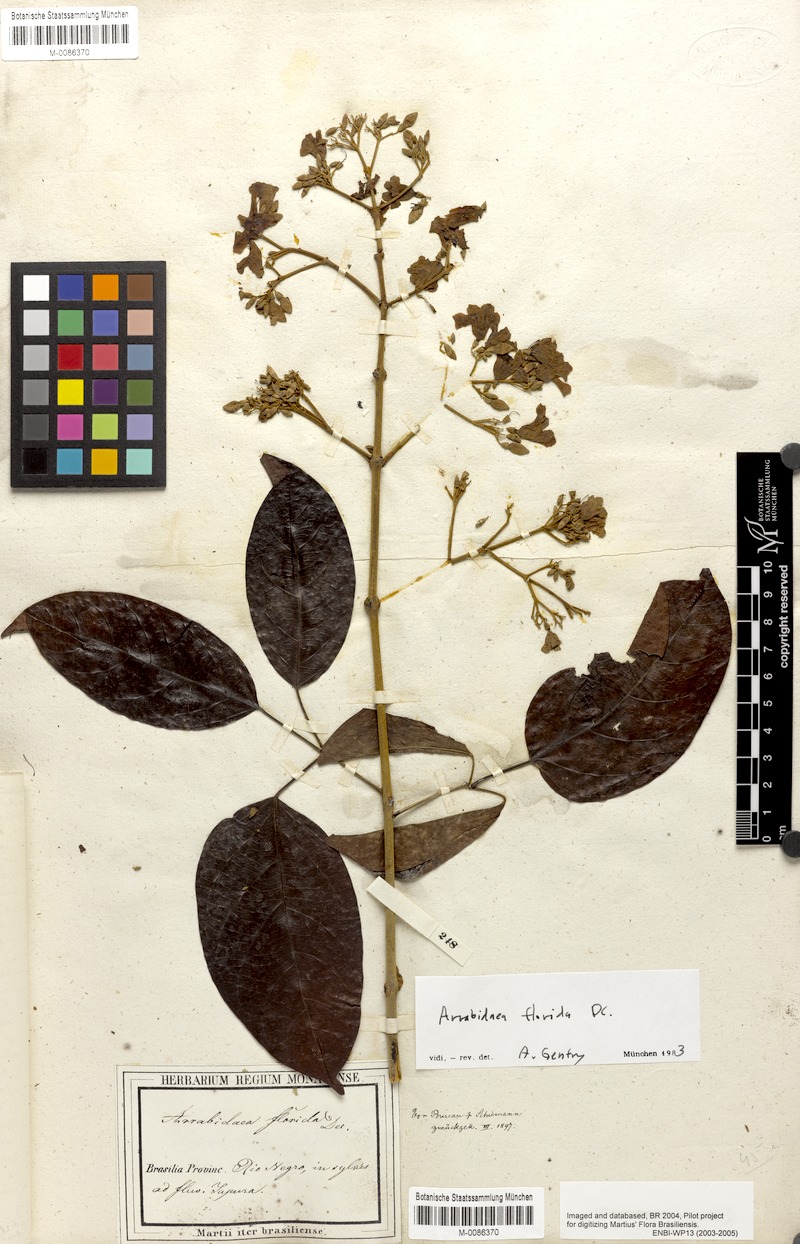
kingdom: Plantae
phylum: Tracheophyta
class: Magnoliopsida
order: Lamiales
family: Bignoniaceae
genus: Fridericia
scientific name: Fridericia florida
